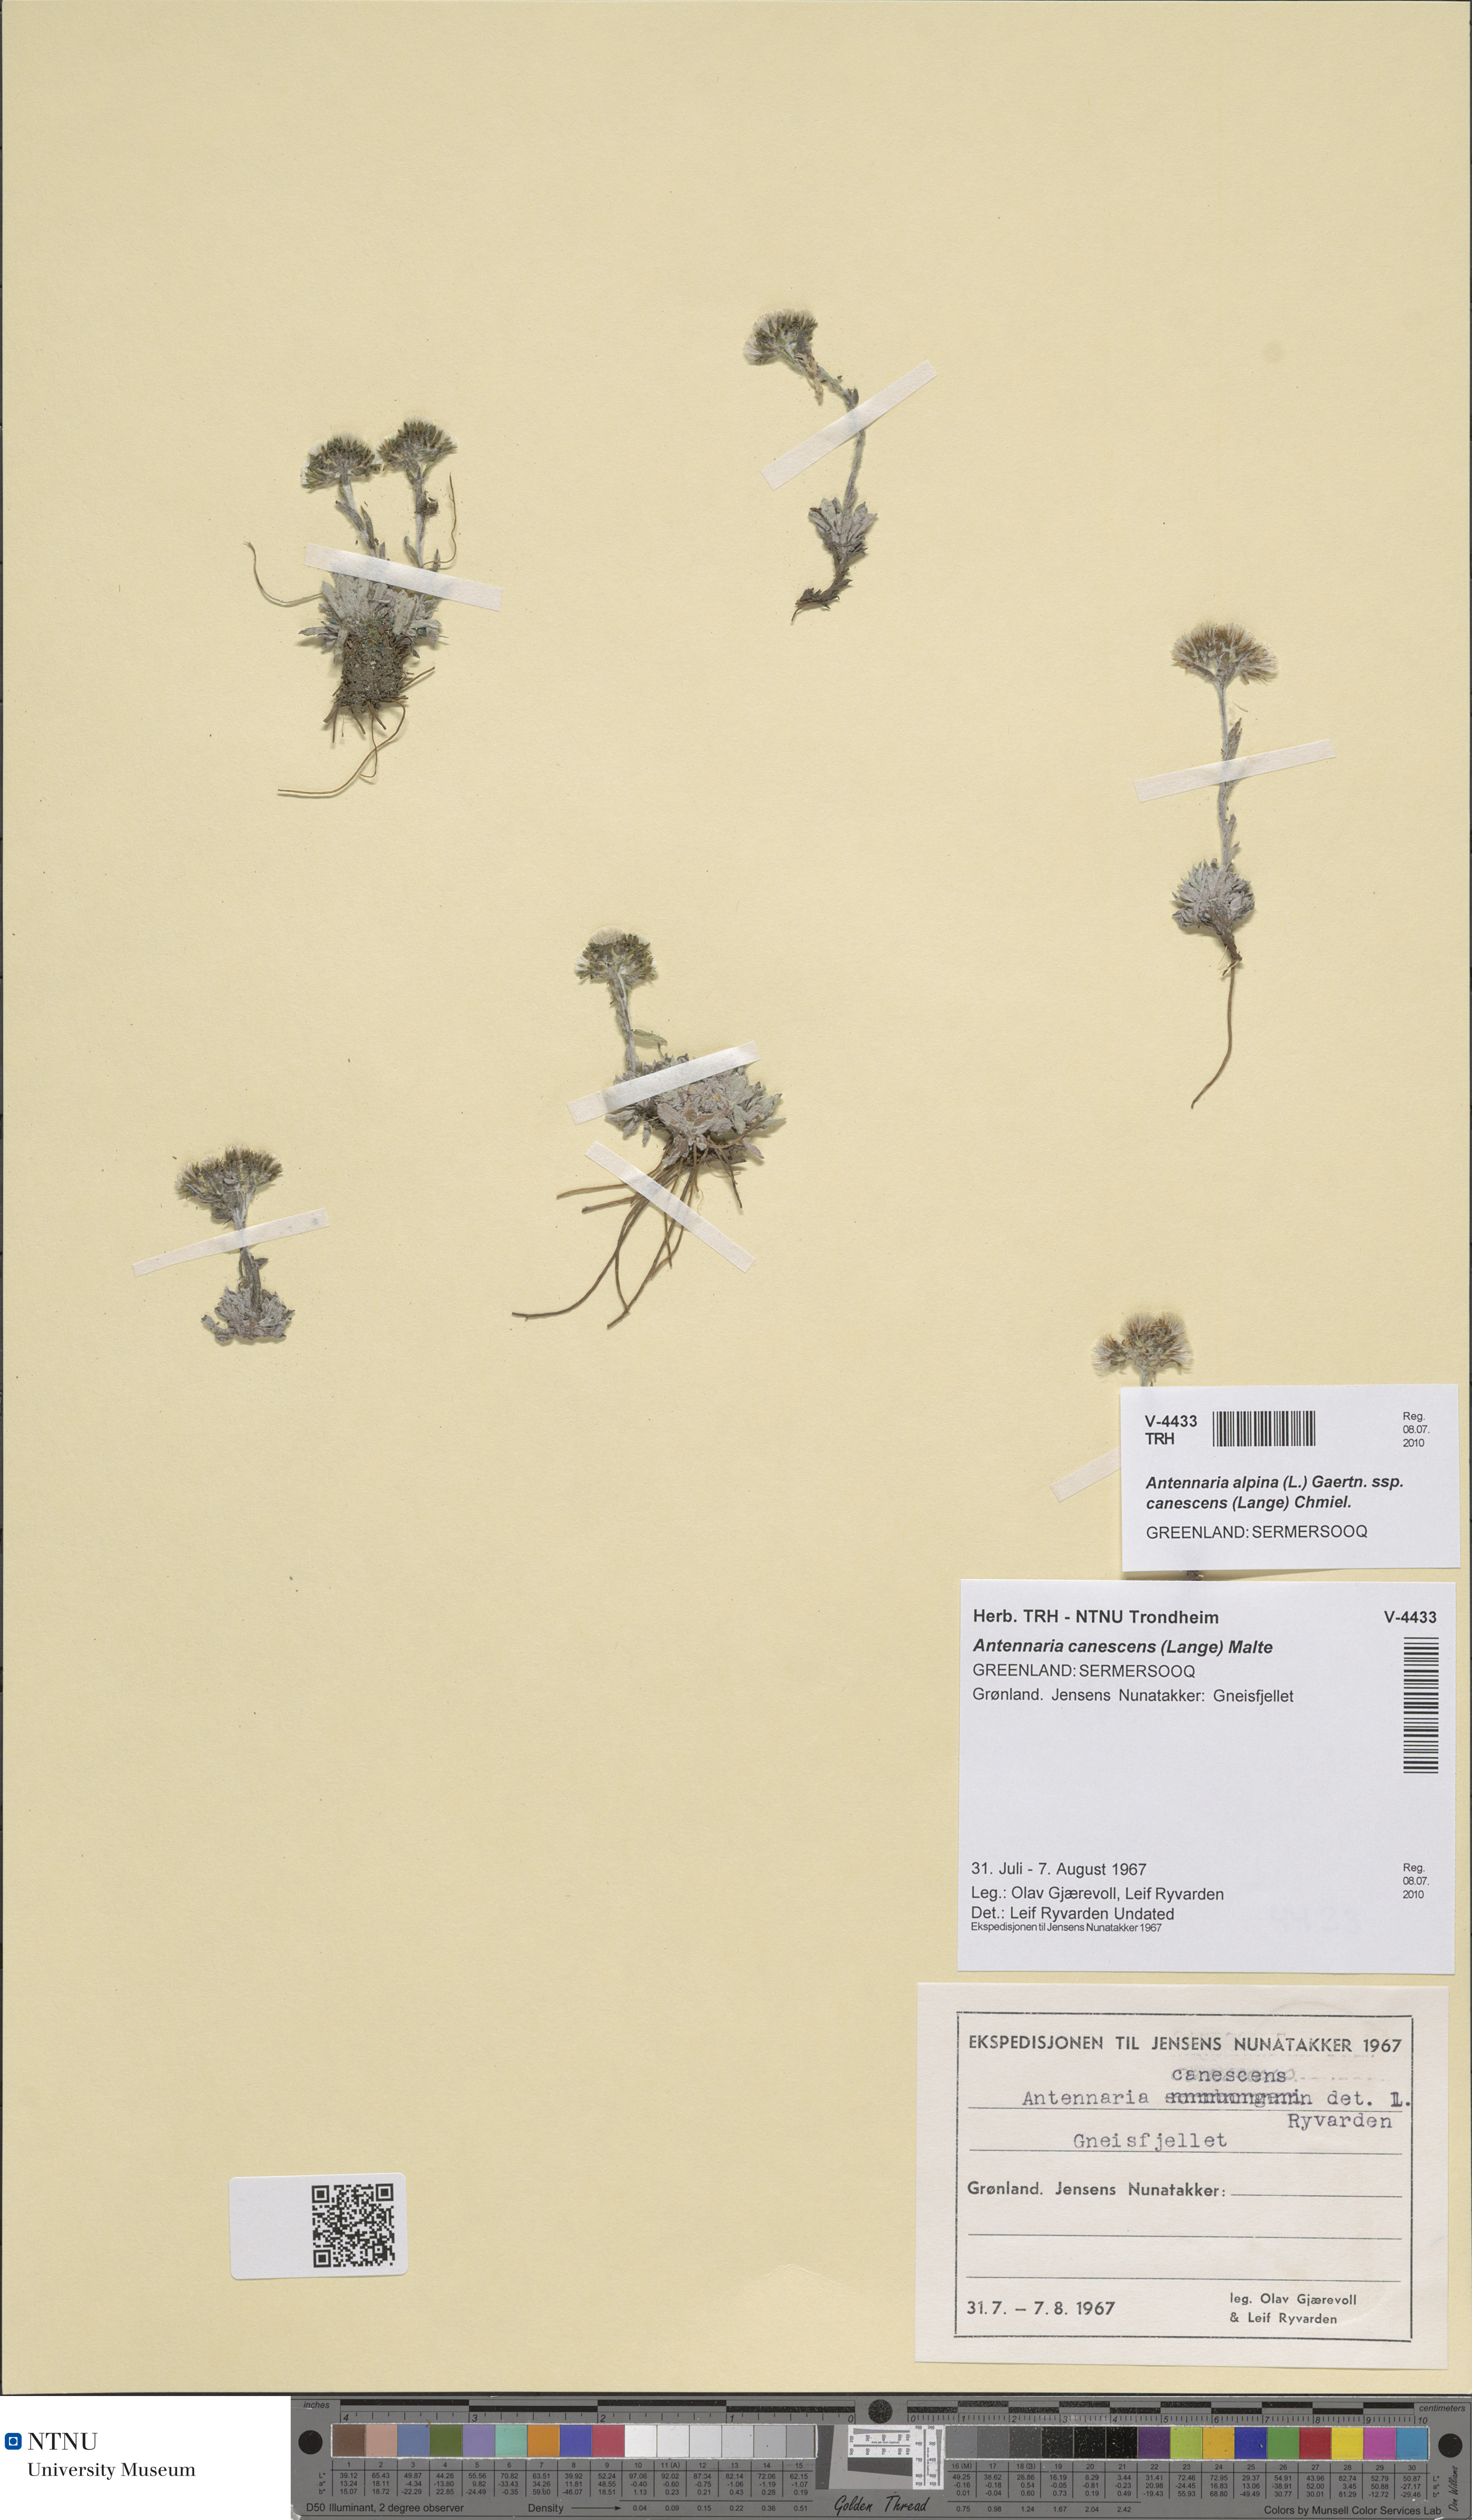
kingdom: Plantae
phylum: Tracheophyta
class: Magnoliopsida
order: Asterales
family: Asteraceae
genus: Antennaria
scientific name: Antennaria canescens
